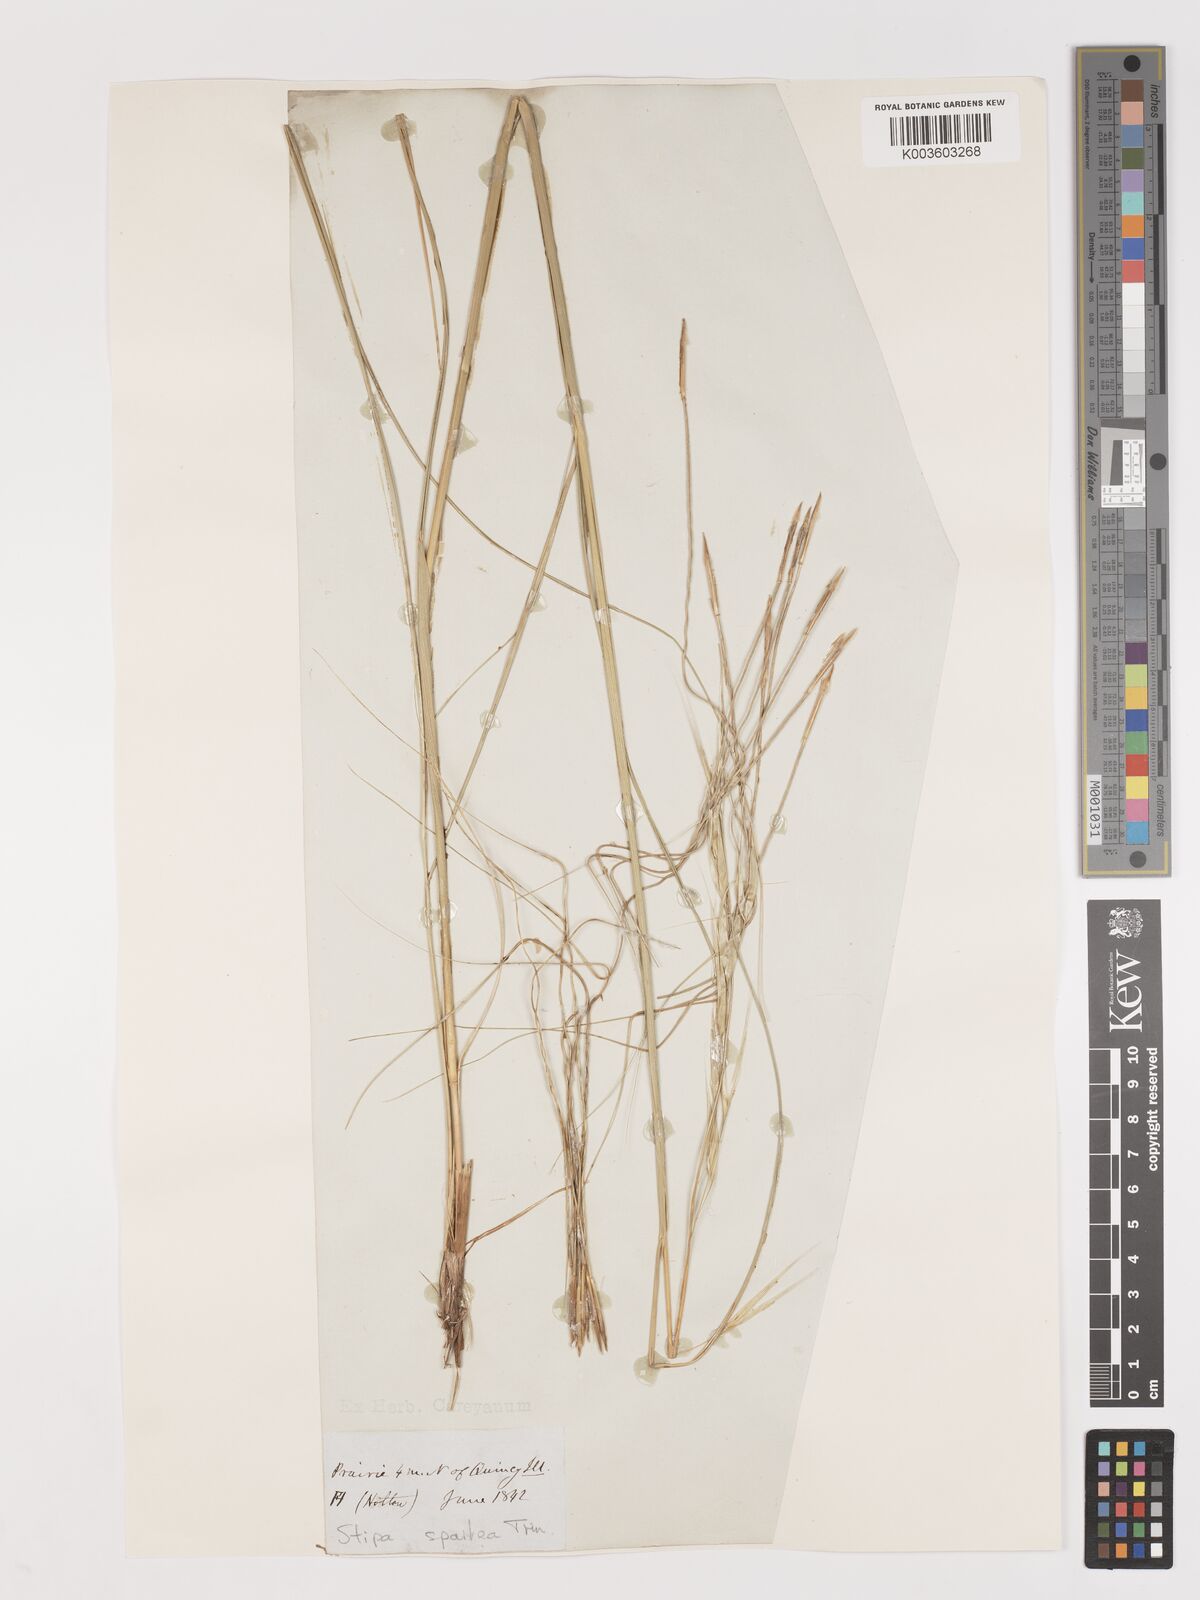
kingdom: Plantae
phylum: Tracheophyta
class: Liliopsida
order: Poales
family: Poaceae
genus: Hesperostipa
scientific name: Hesperostipa spartea
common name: Porcupine grass
